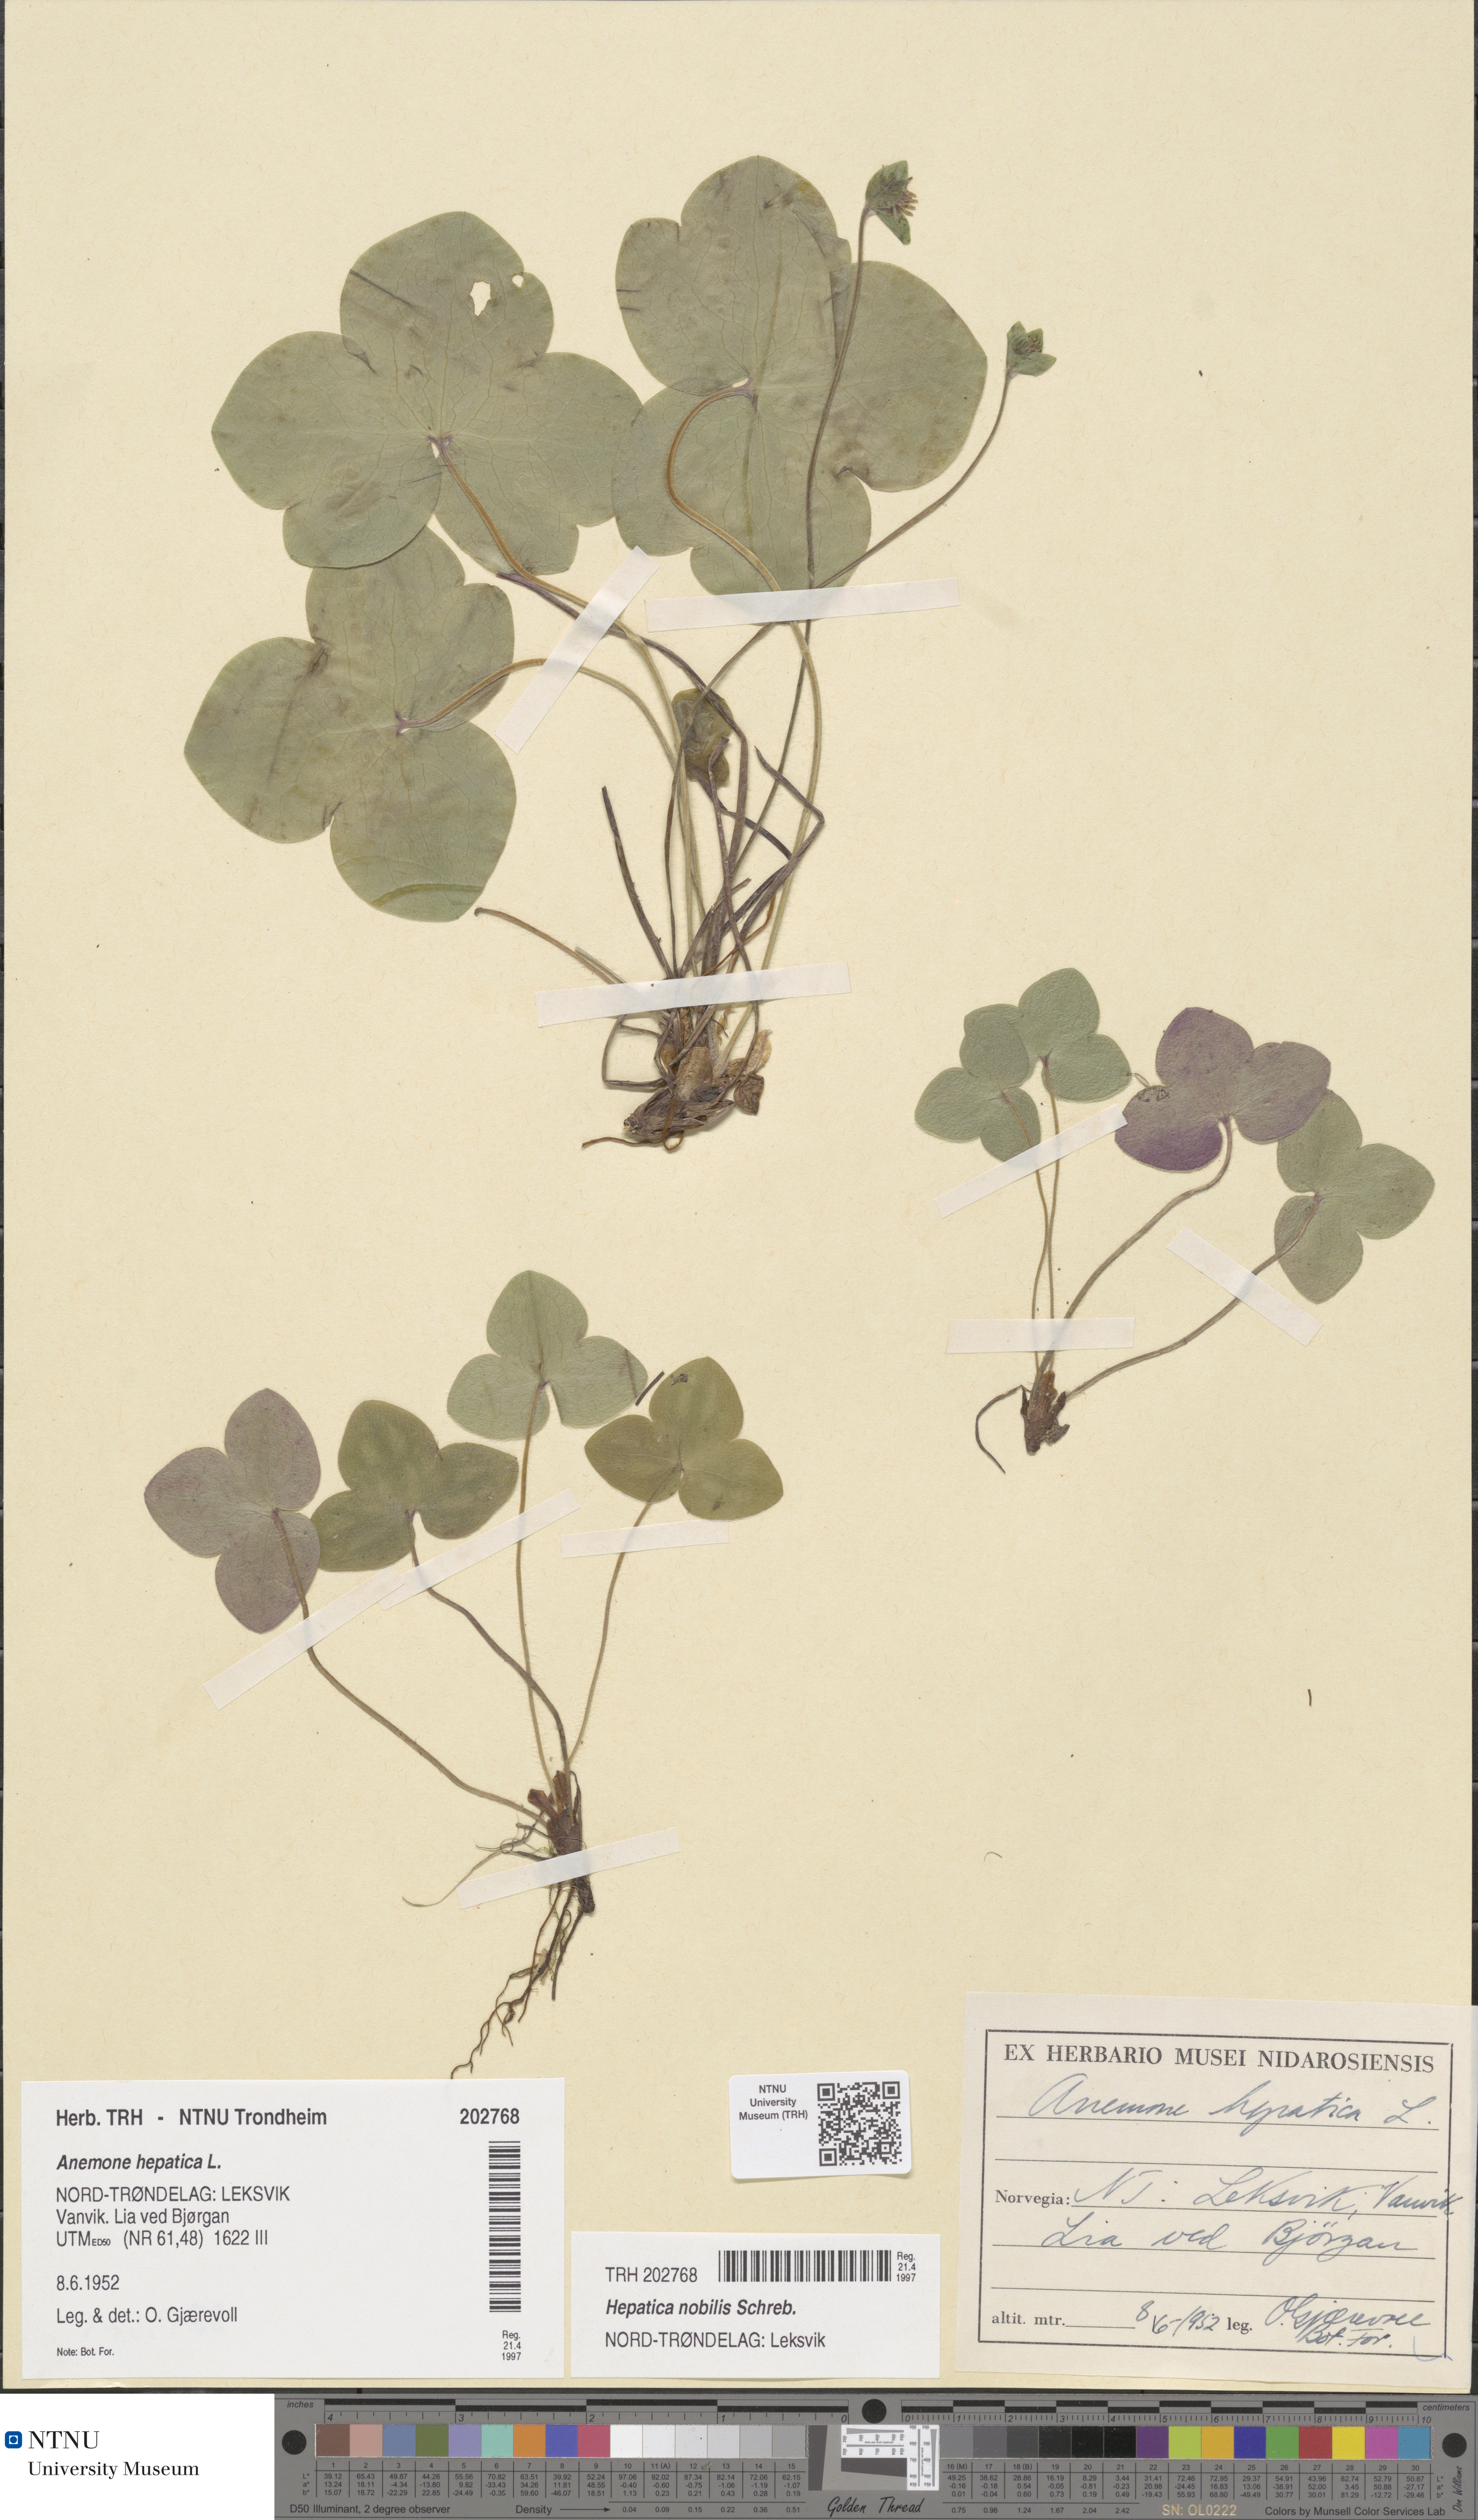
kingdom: Plantae
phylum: Tracheophyta
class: Magnoliopsida
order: Ranunculales
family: Ranunculaceae
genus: Hepatica
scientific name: Hepatica nobilis
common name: Liverleaf
